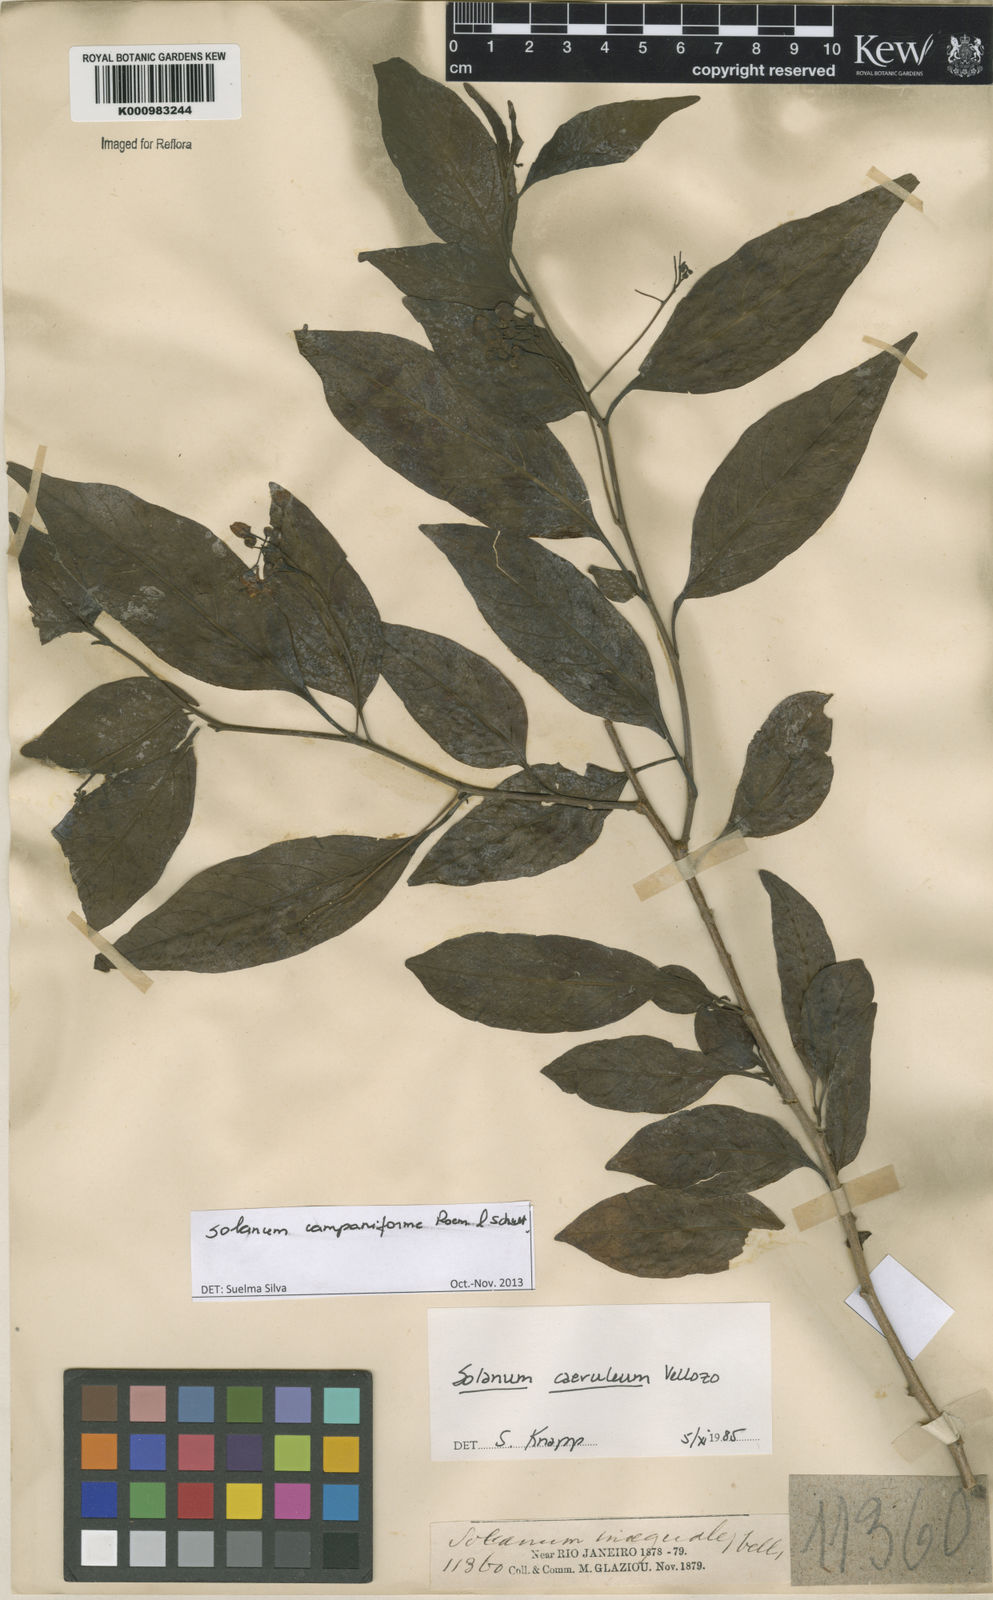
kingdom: Plantae
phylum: Tracheophyta
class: Magnoliopsida
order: Solanales
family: Solanaceae
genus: Solanum
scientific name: Solanum campaniforme
